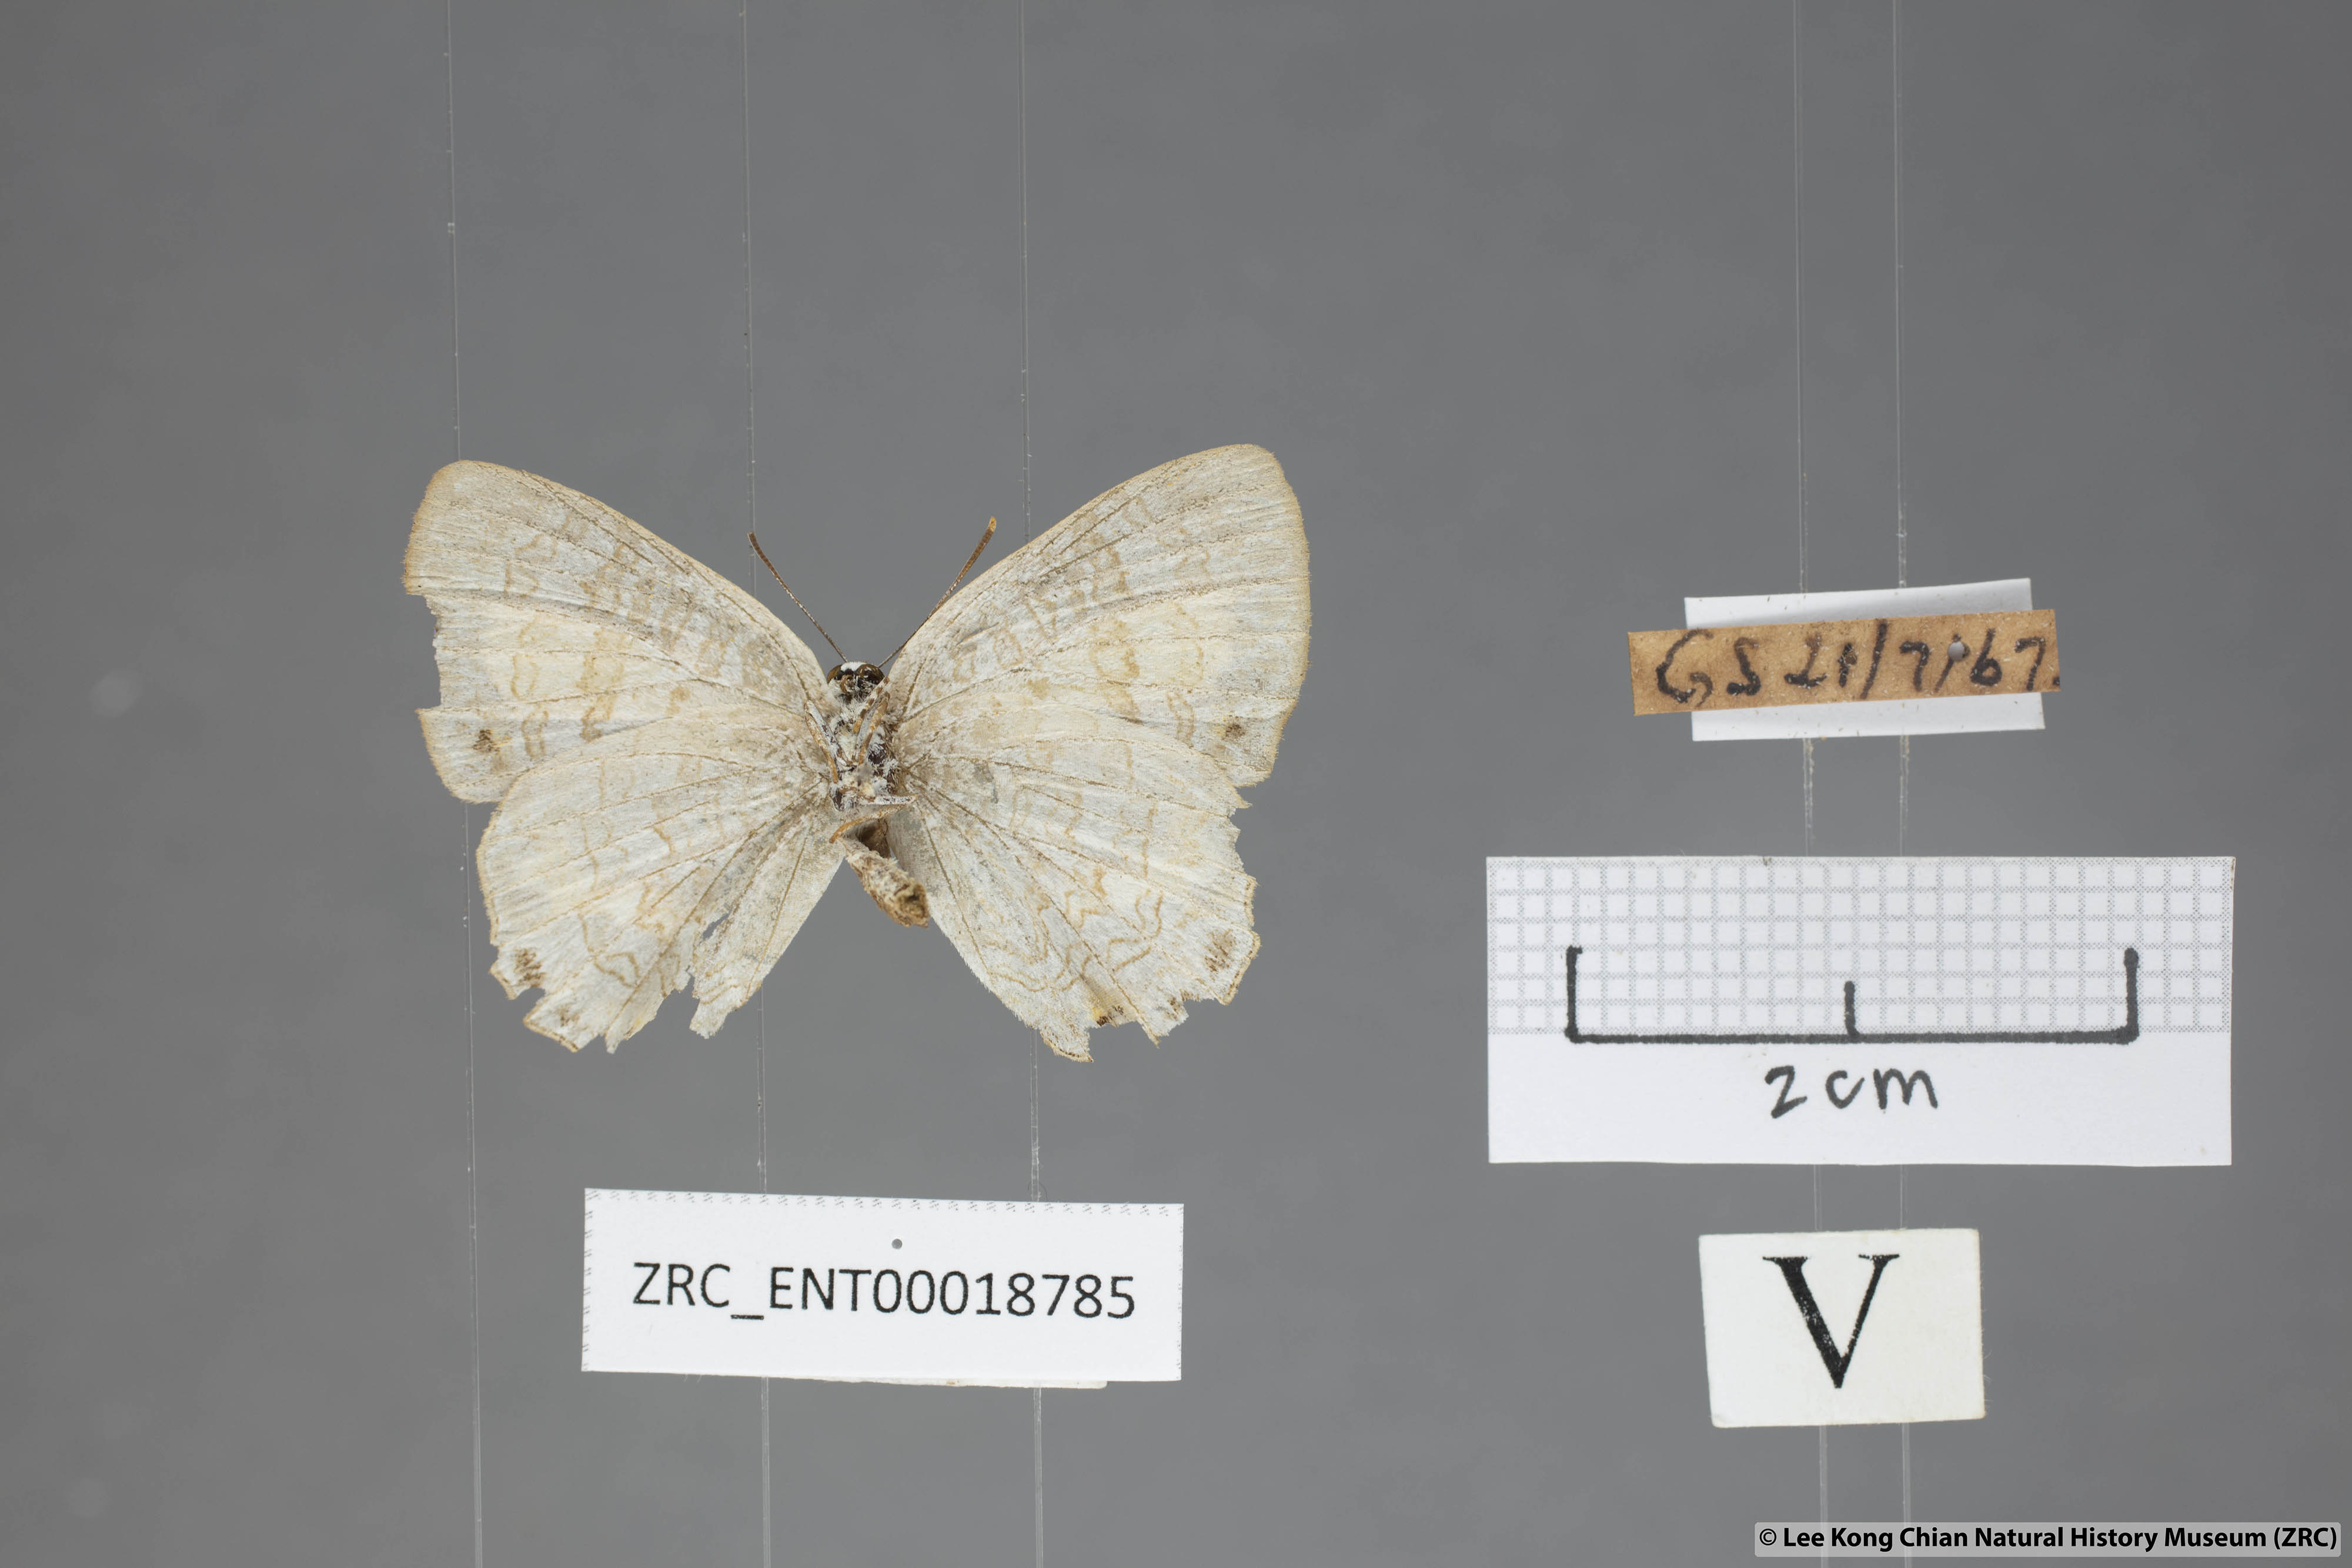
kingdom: Animalia
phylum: Arthropoda
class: Insecta
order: Lepidoptera
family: Lycaenidae
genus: Poritia
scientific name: Poritia erycinoides
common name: Blue gem
